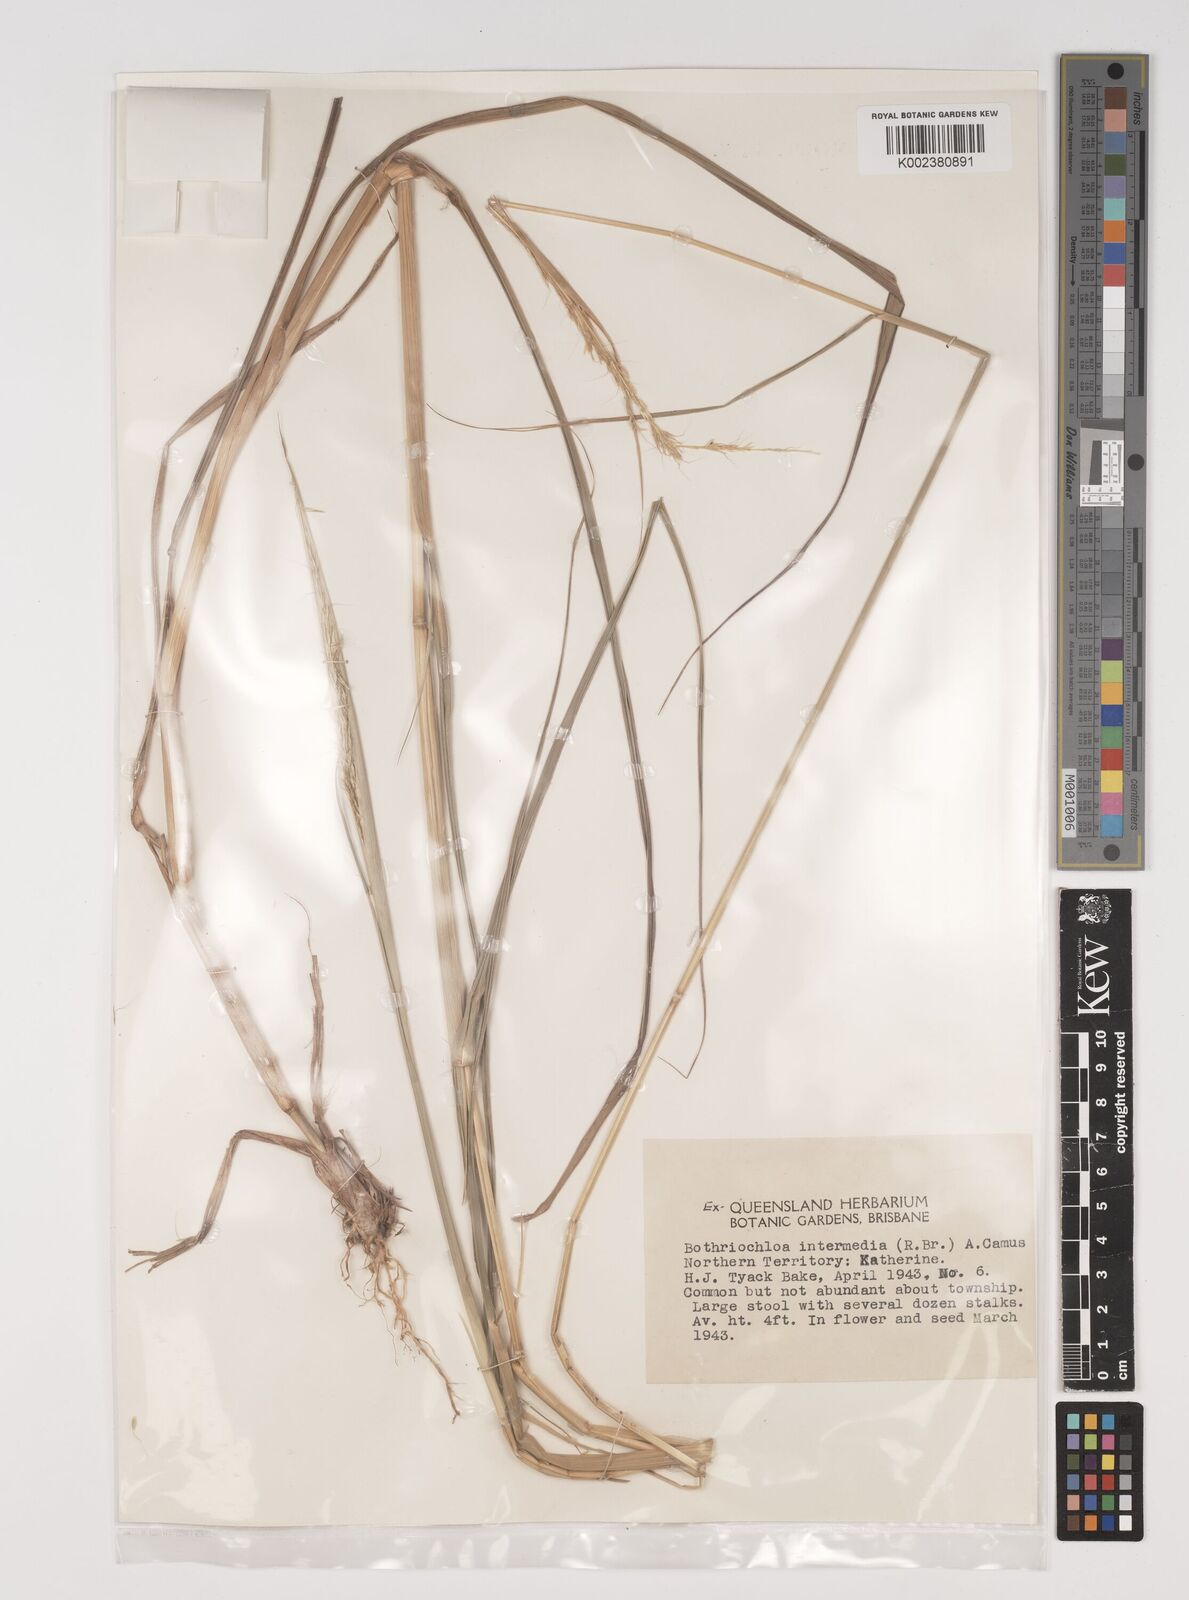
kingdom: Plantae
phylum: Tracheophyta
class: Liliopsida
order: Poales
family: Poaceae
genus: Bothriochloa
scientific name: Bothriochloa bladhii
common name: Caucasian bluestem
